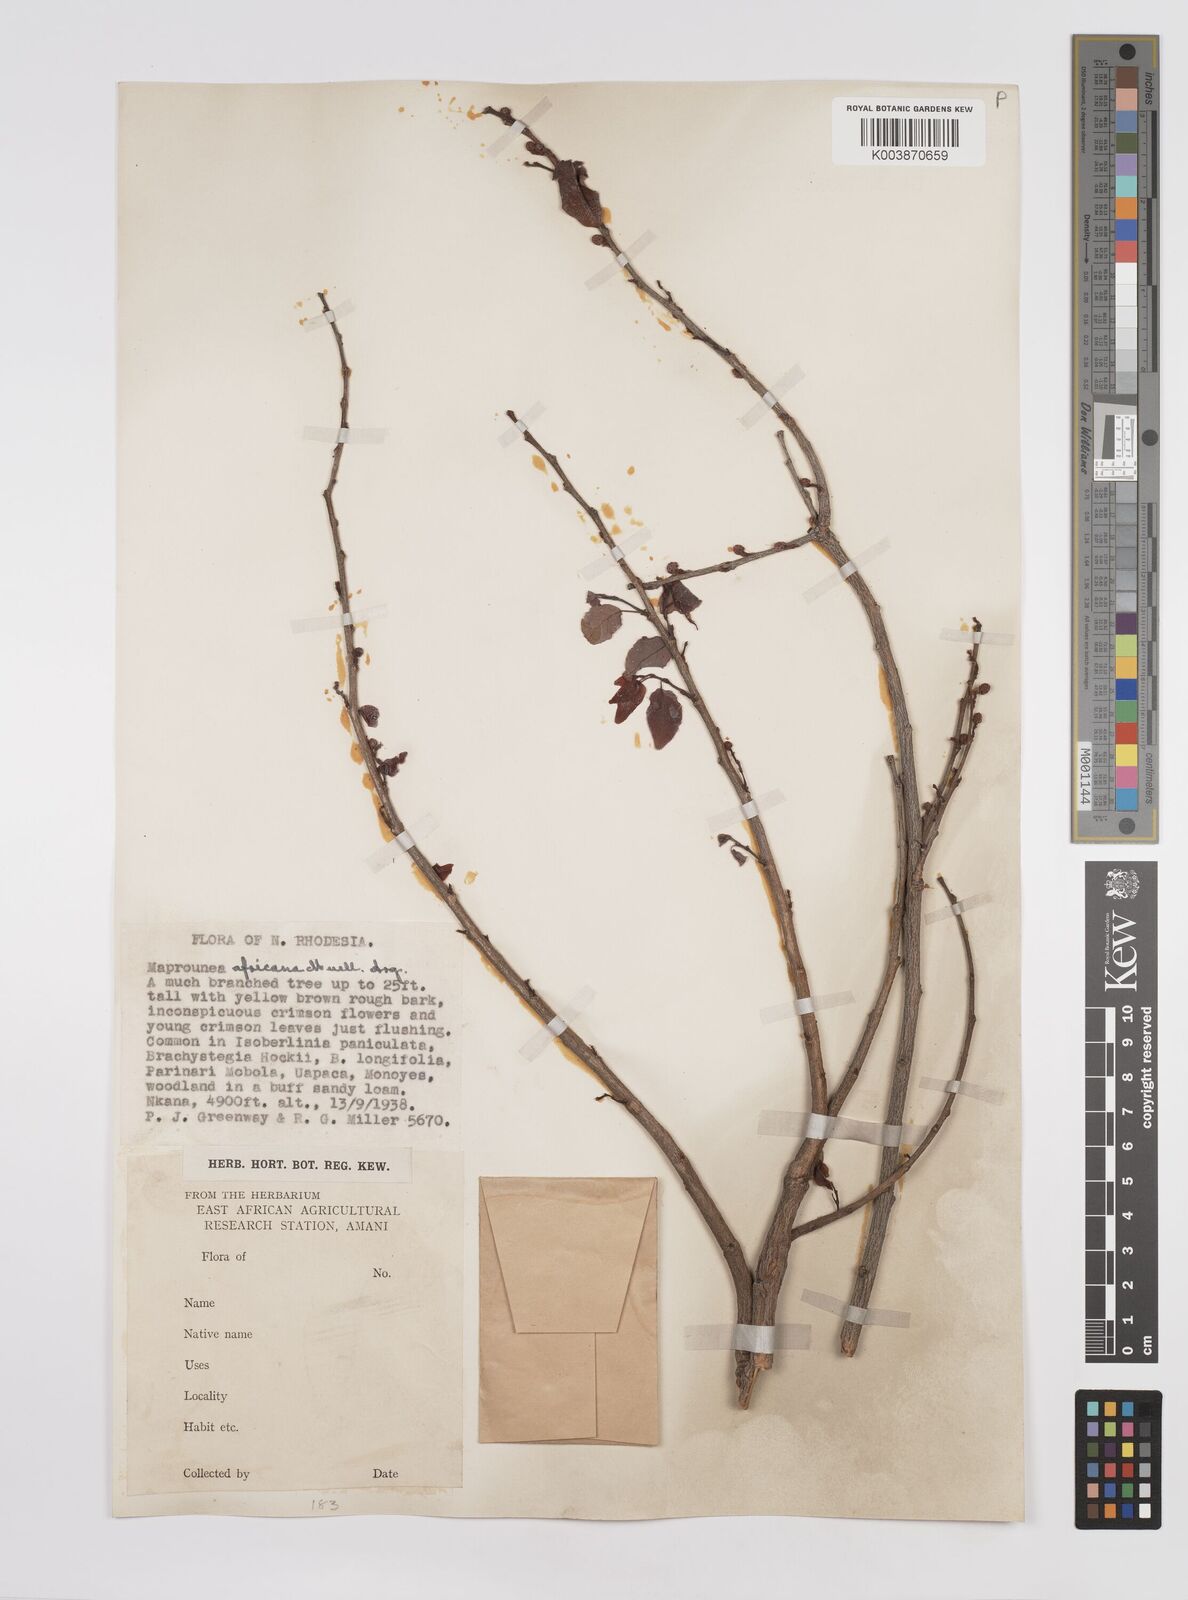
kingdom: Plantae
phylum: Tracheophyta
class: Magnoliopsida
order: Malpighiales
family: Euphorbiaceae
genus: Maprounea
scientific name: Maprounea africana
